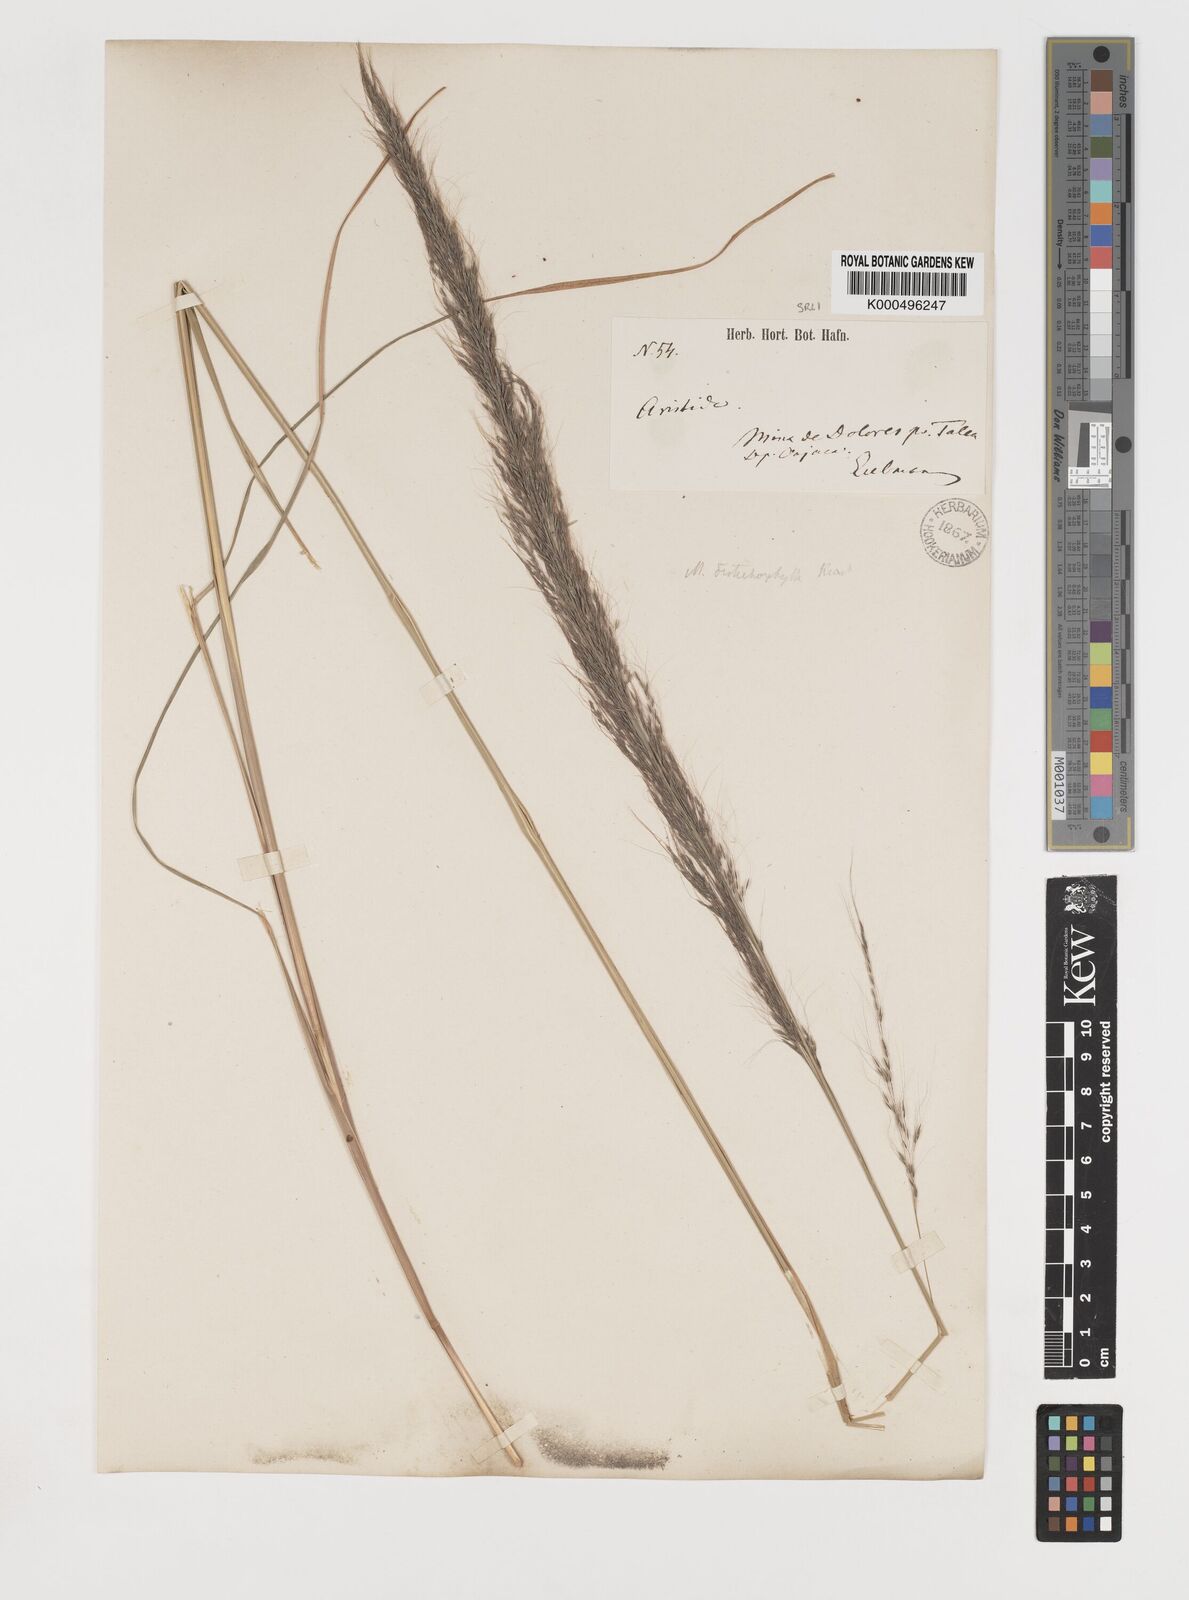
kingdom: Plantae
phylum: Tracheophyta
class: Liliopsida
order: Poales
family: Poaceae
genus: Muhlenbergia
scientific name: Muhlenbergia
